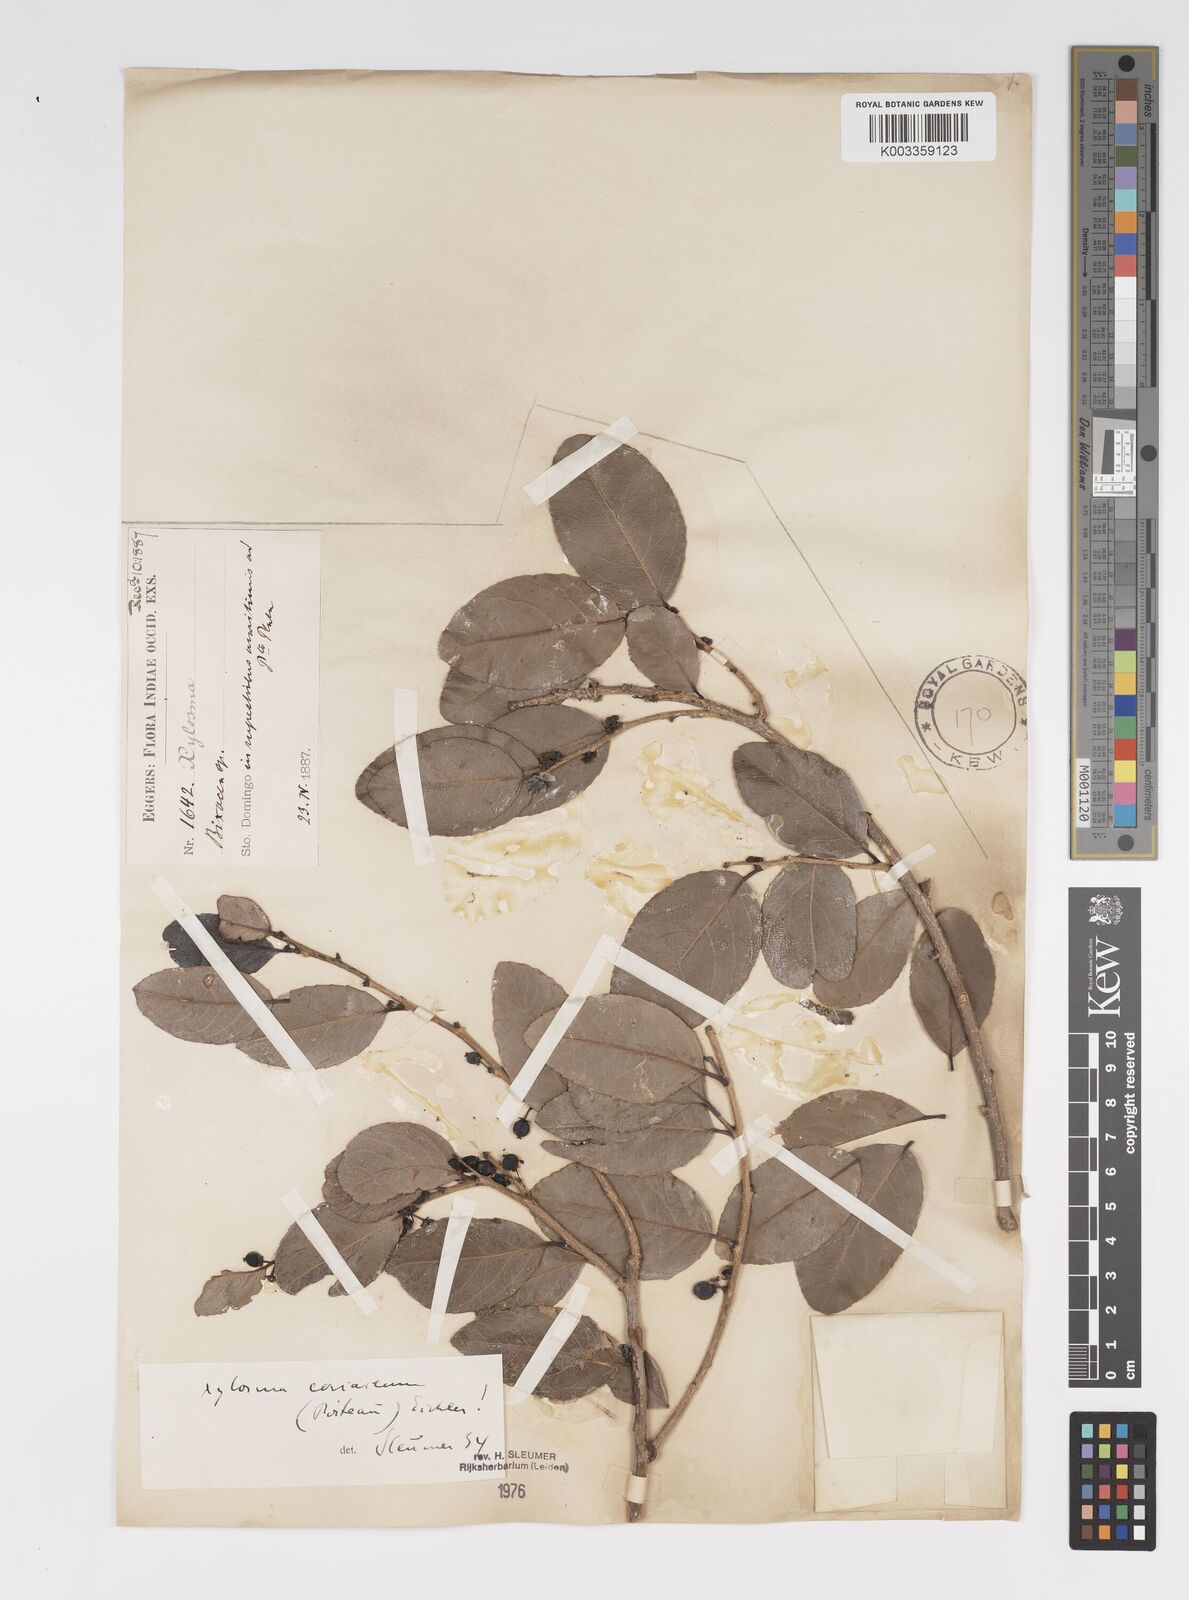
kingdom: Plantae
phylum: Tracheophyta
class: Magnoliopsida
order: Malpighiales
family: Salicaceae
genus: Xylosma
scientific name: Xylosma coriacea
